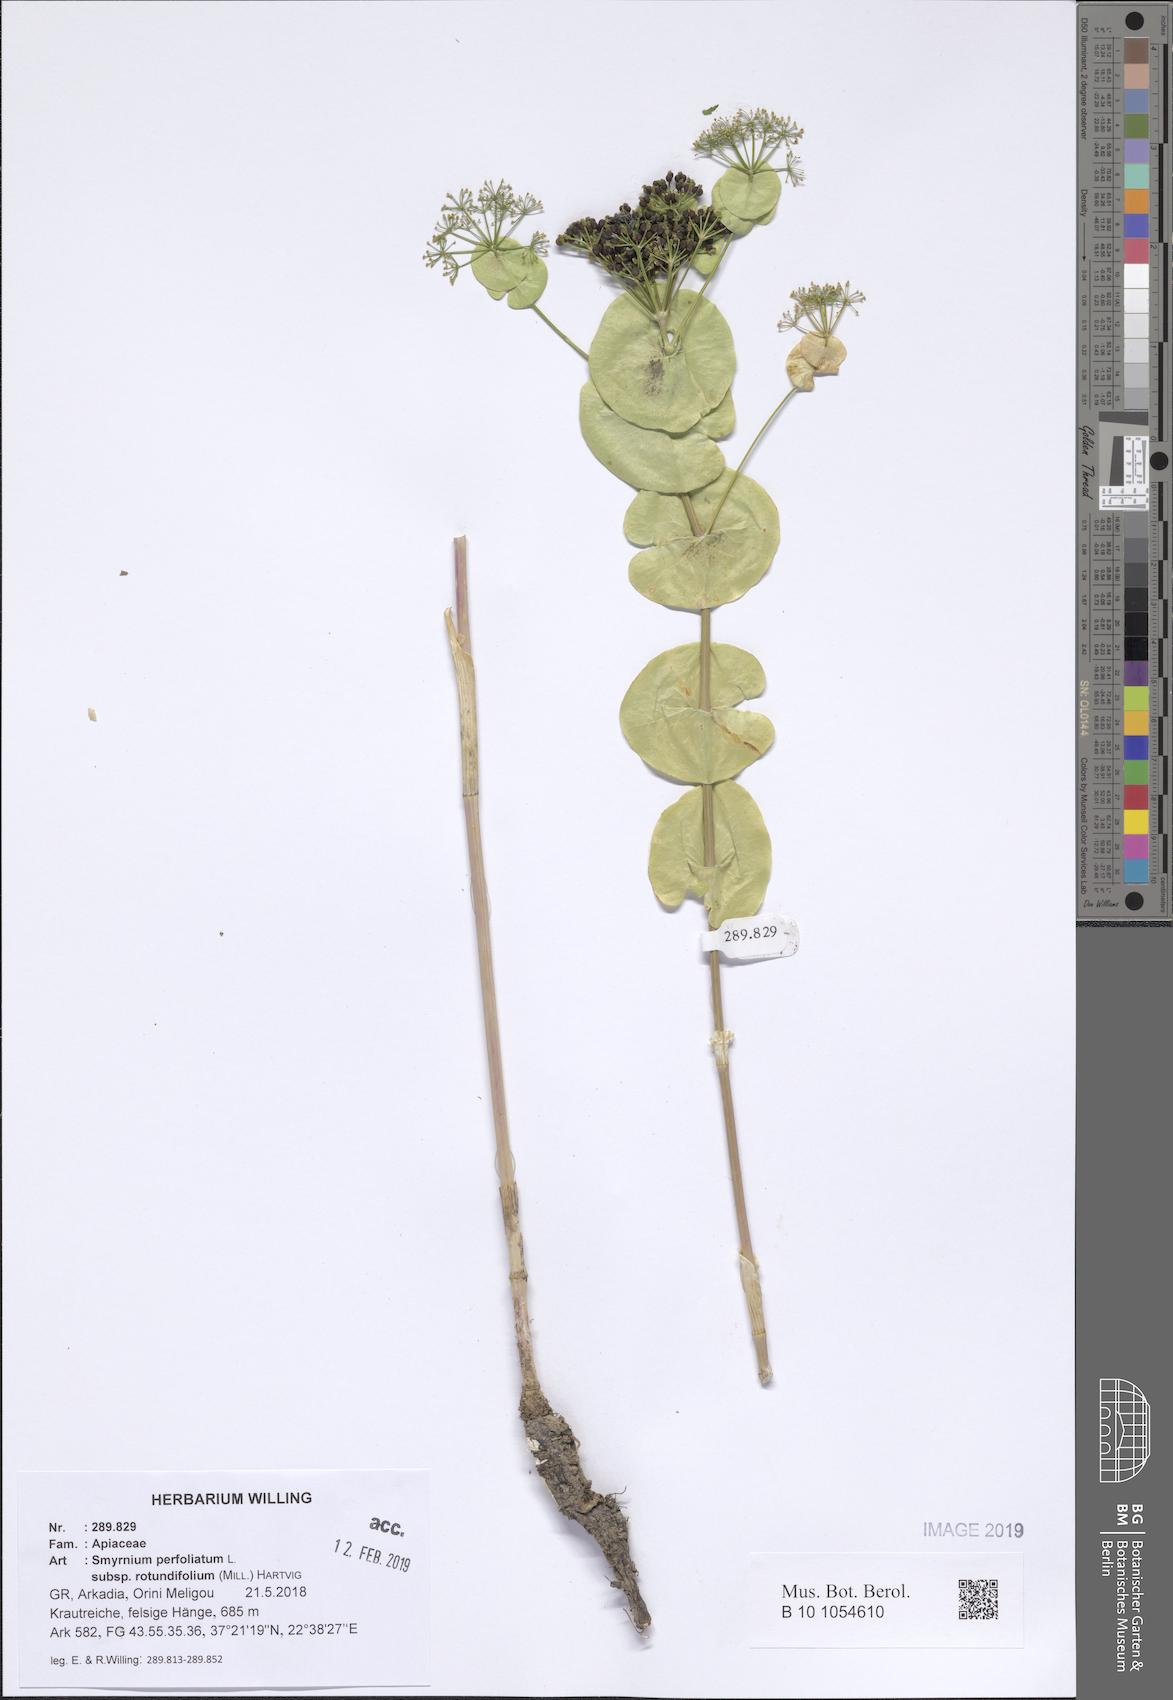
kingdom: Plantae
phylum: Tracheophyta
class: Magnoliopsida
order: Apiales
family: Apiaceae
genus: Smyrnium
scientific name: Smyrnium perfoliatum
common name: Perfoliate alexanders
